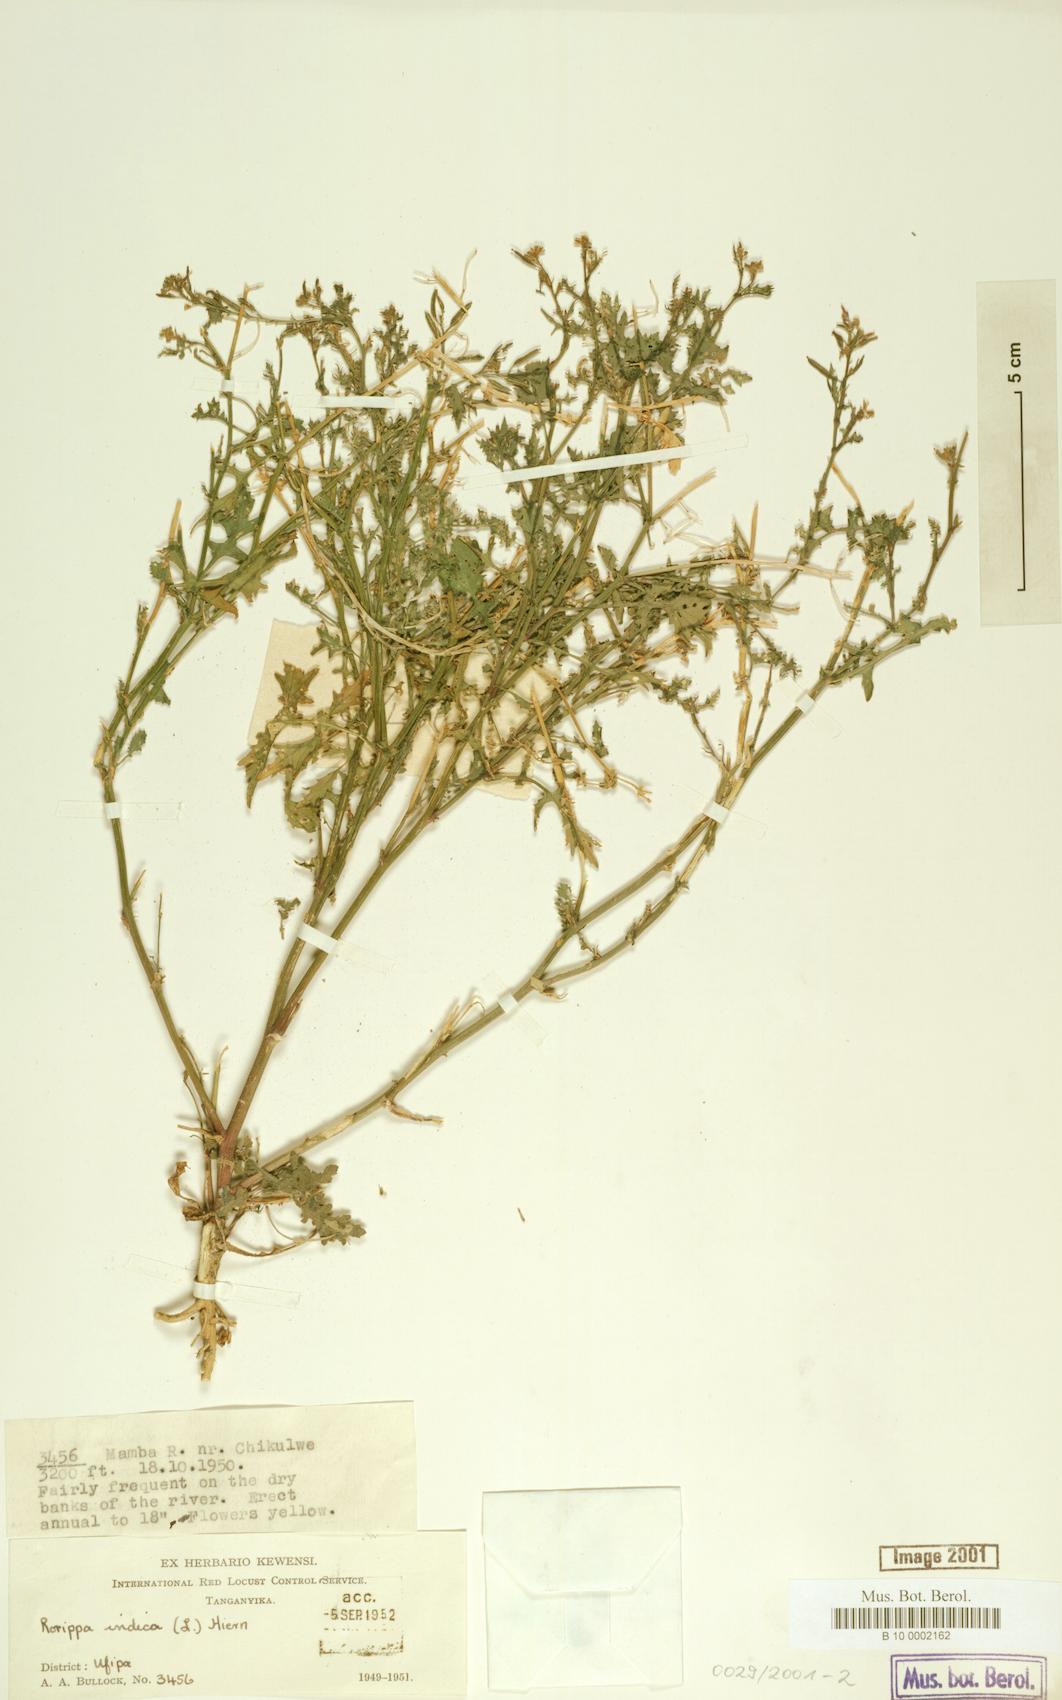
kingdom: Plantae
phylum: Tracheophyta
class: Magnoliopsida
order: Brassicales
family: Brassicaceae
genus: Rorippa
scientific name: Rorippa indica
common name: Variableleaf yellowcress
